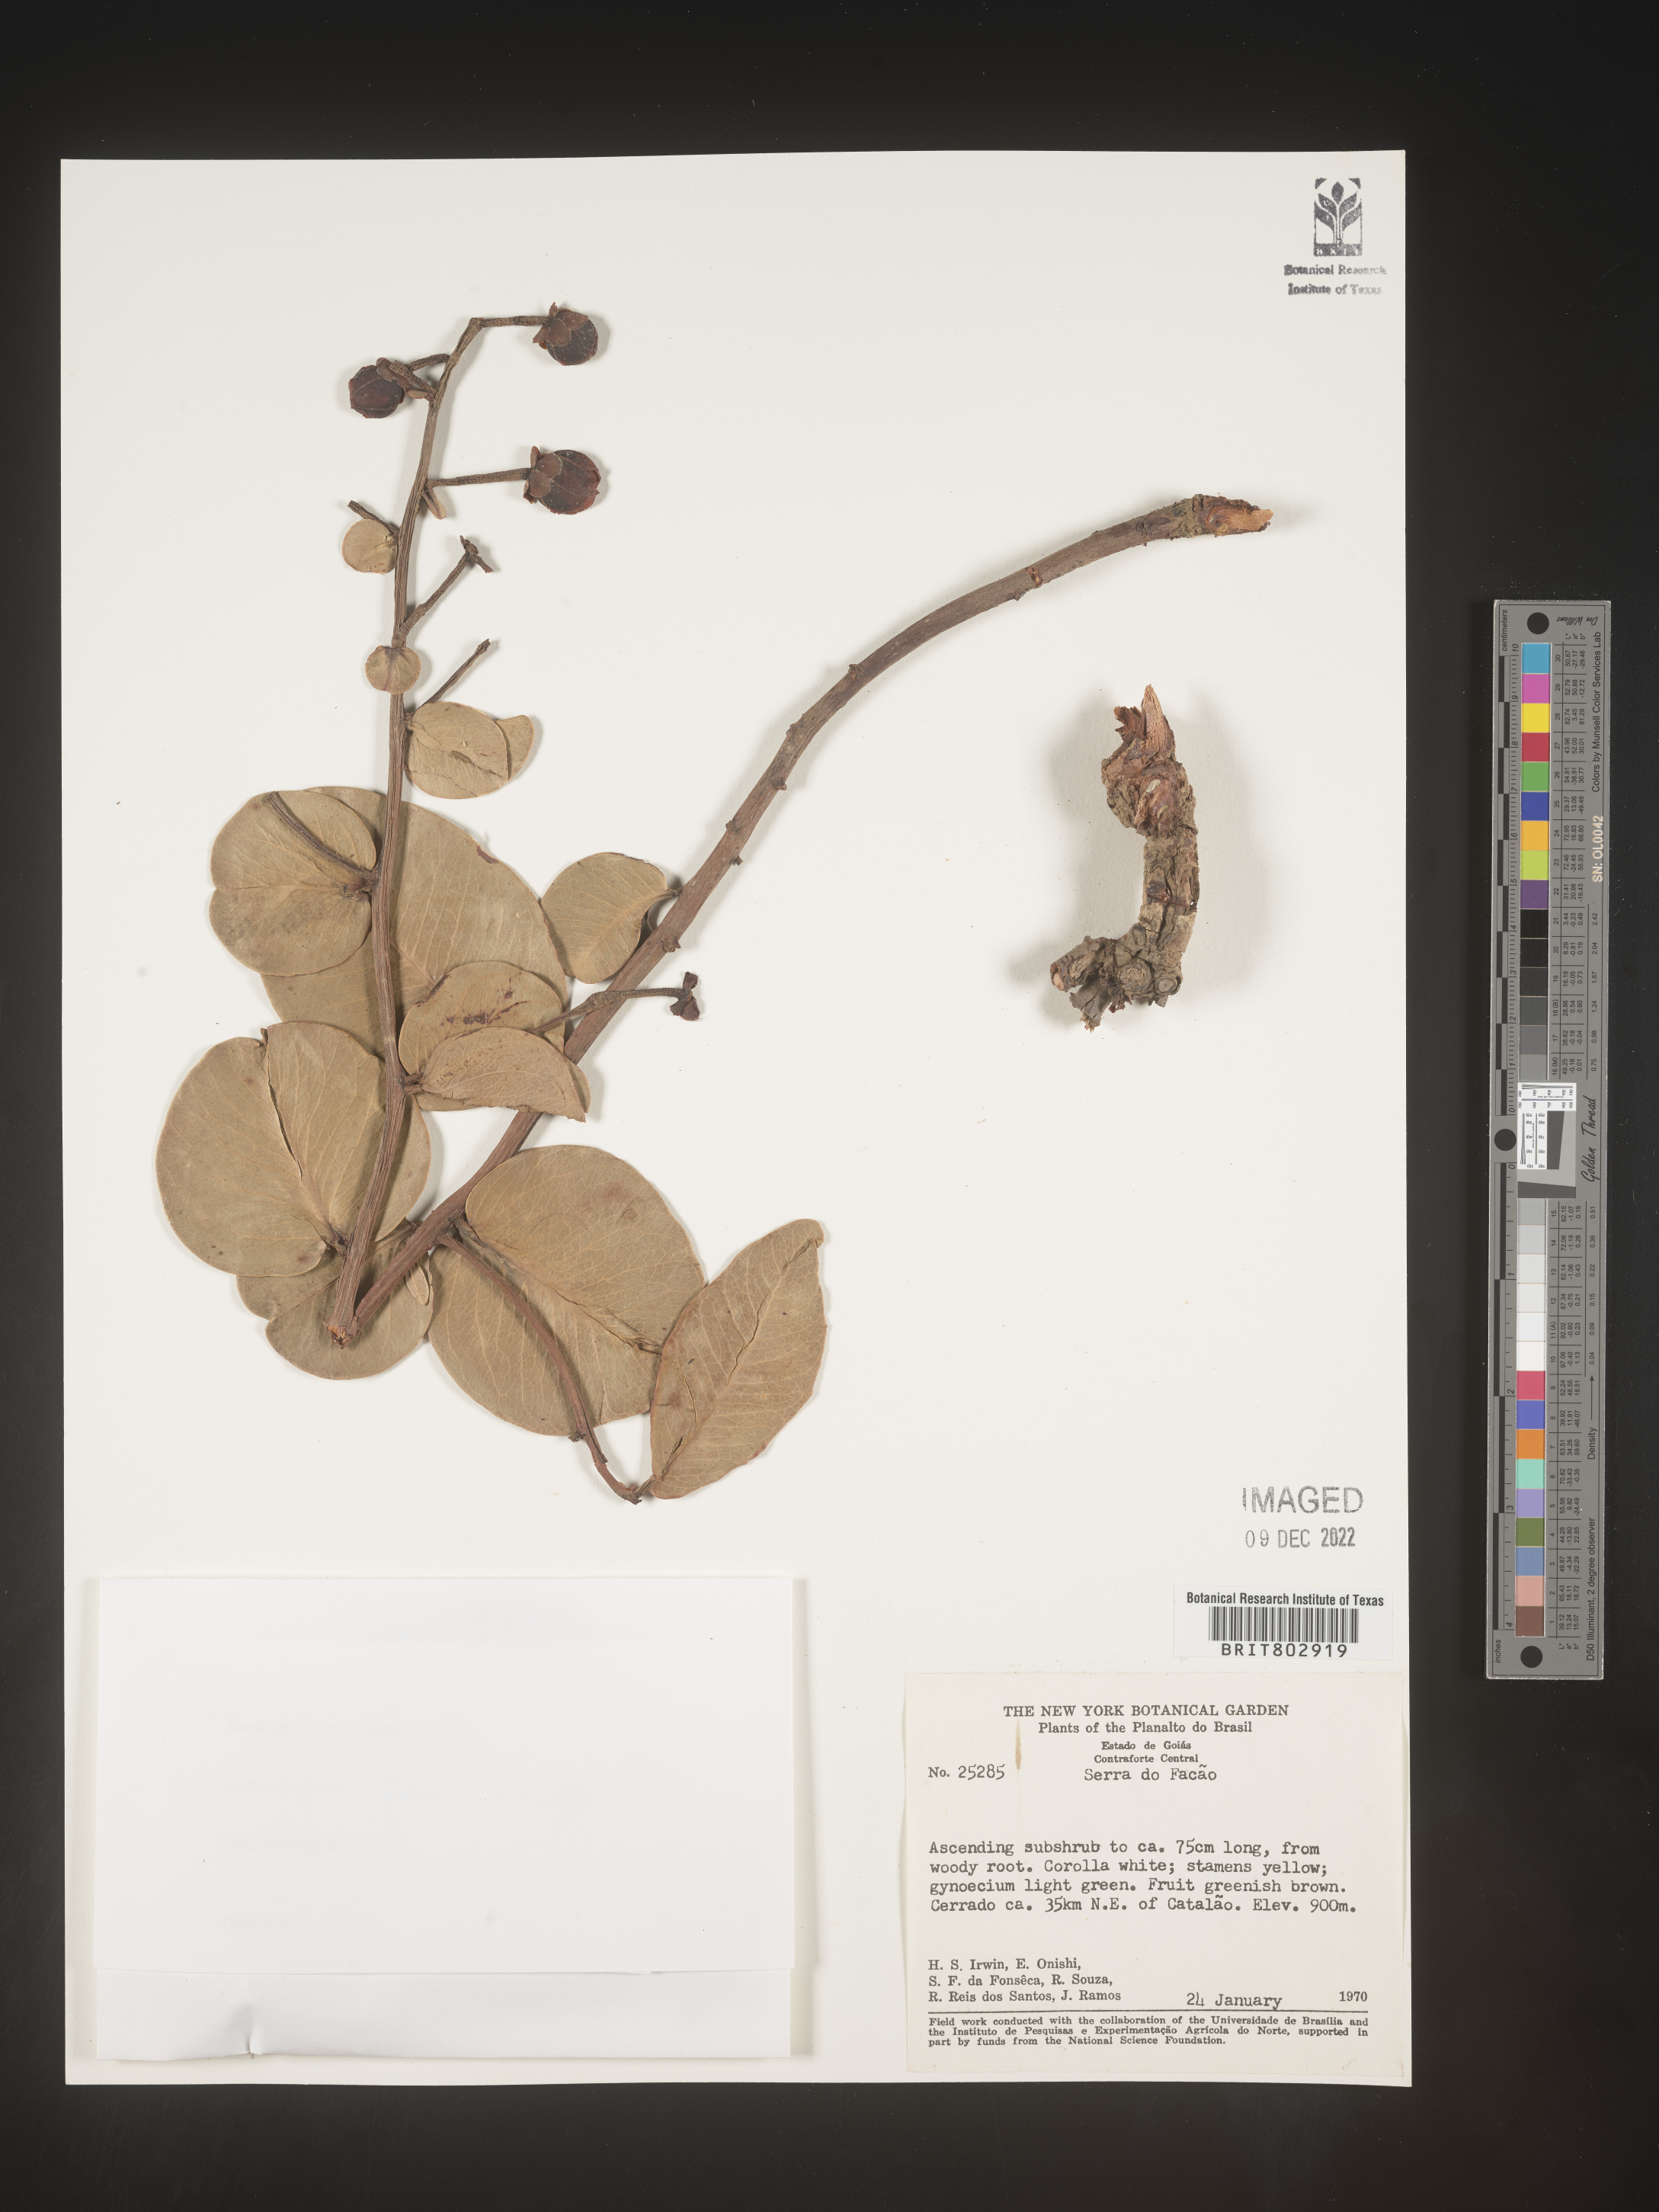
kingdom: Plantae
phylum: Tracheophyta
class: Magnoliopsida
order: Malpighiales
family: Calophyllaceae
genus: Kielmeyera
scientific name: Kielmeyera
